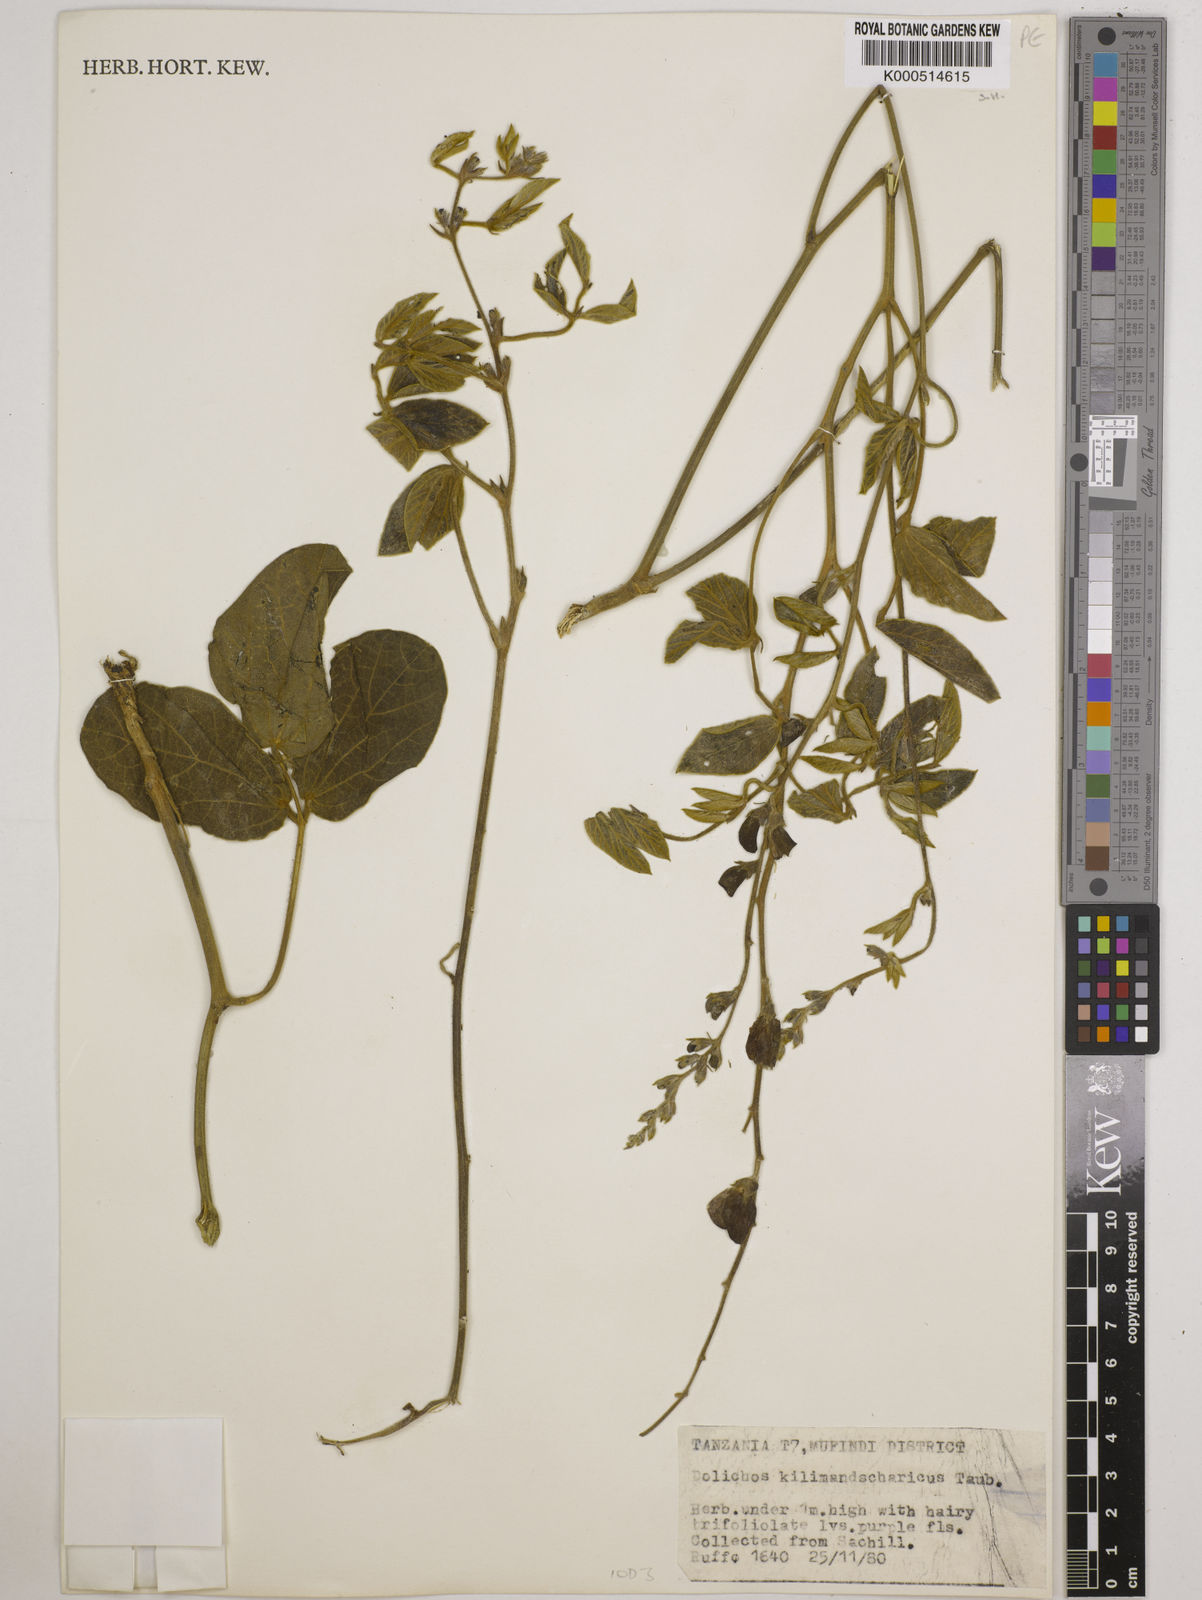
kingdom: Plantae
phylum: Tracheophyta
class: Magnoliopsida
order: Fabales
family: Fabaceae
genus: Dolichos
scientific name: Dolichos kilimandscharicus
